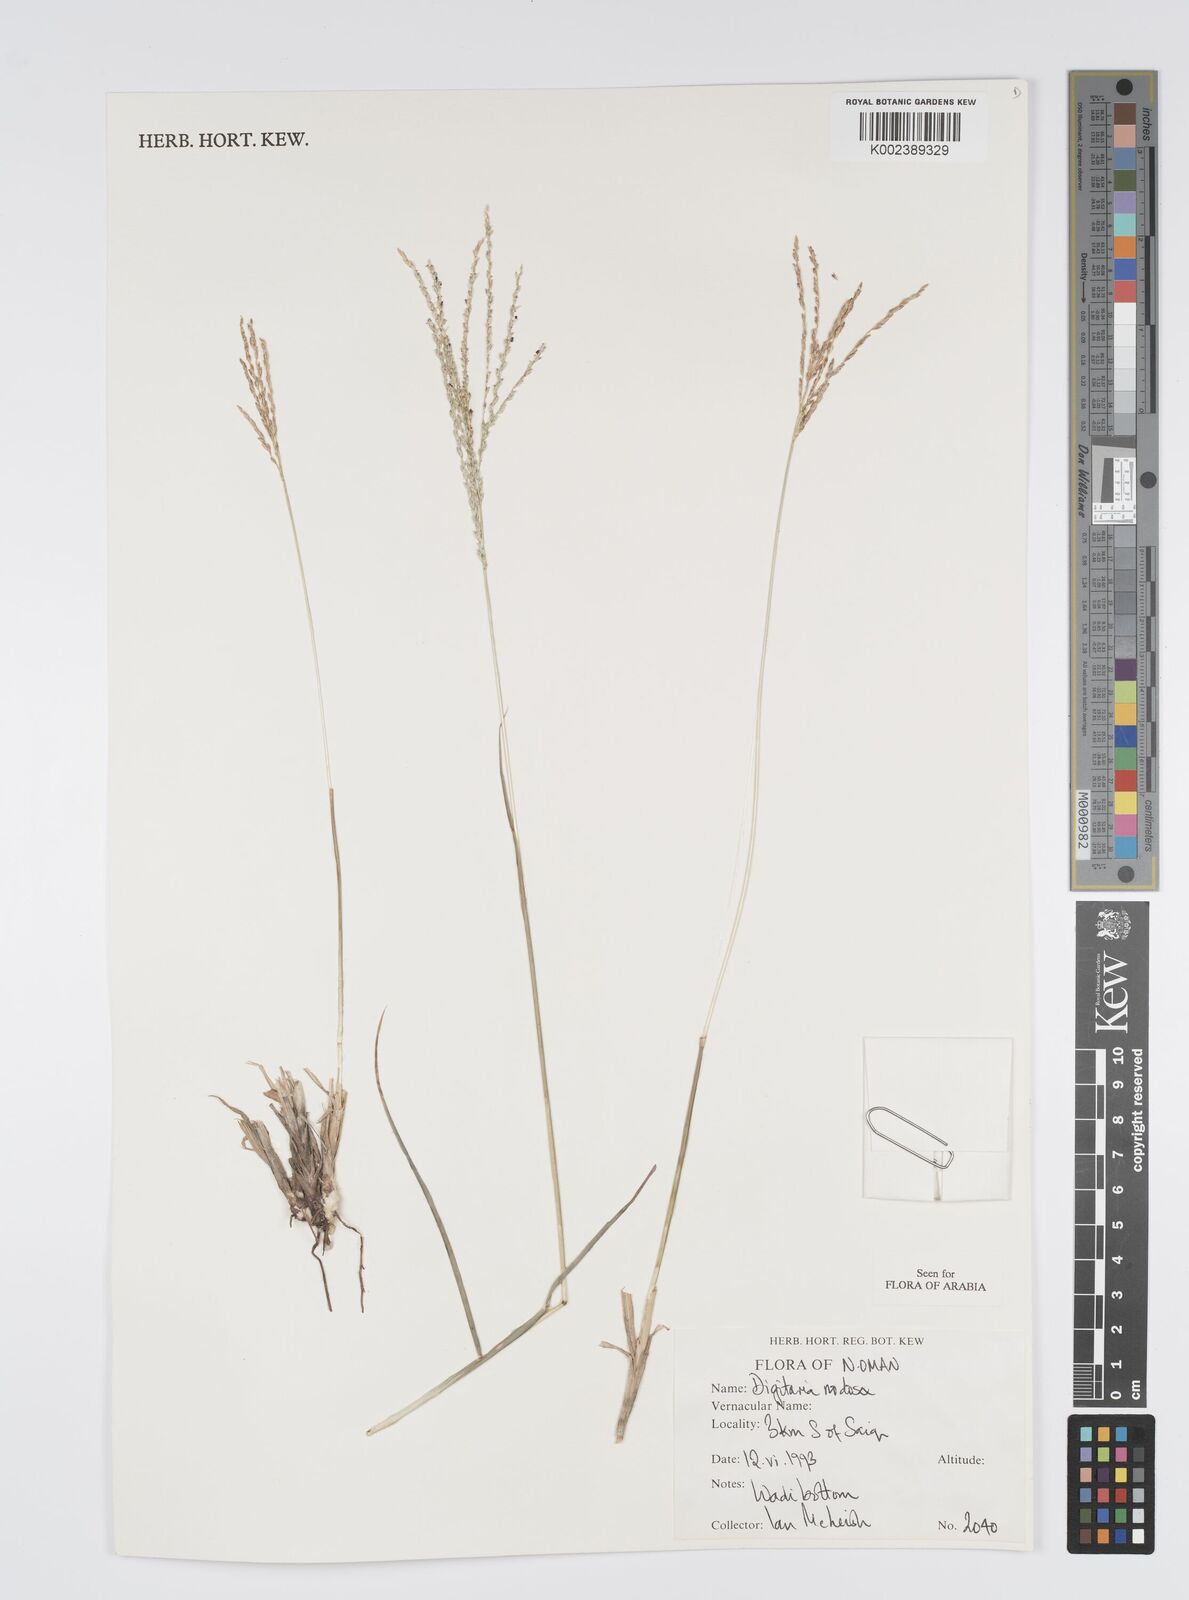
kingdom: Plantae
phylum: Tracheophyta
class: Liliopsida
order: Poales
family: Poaceae
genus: Digitaria
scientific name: Digitaria nodosa
